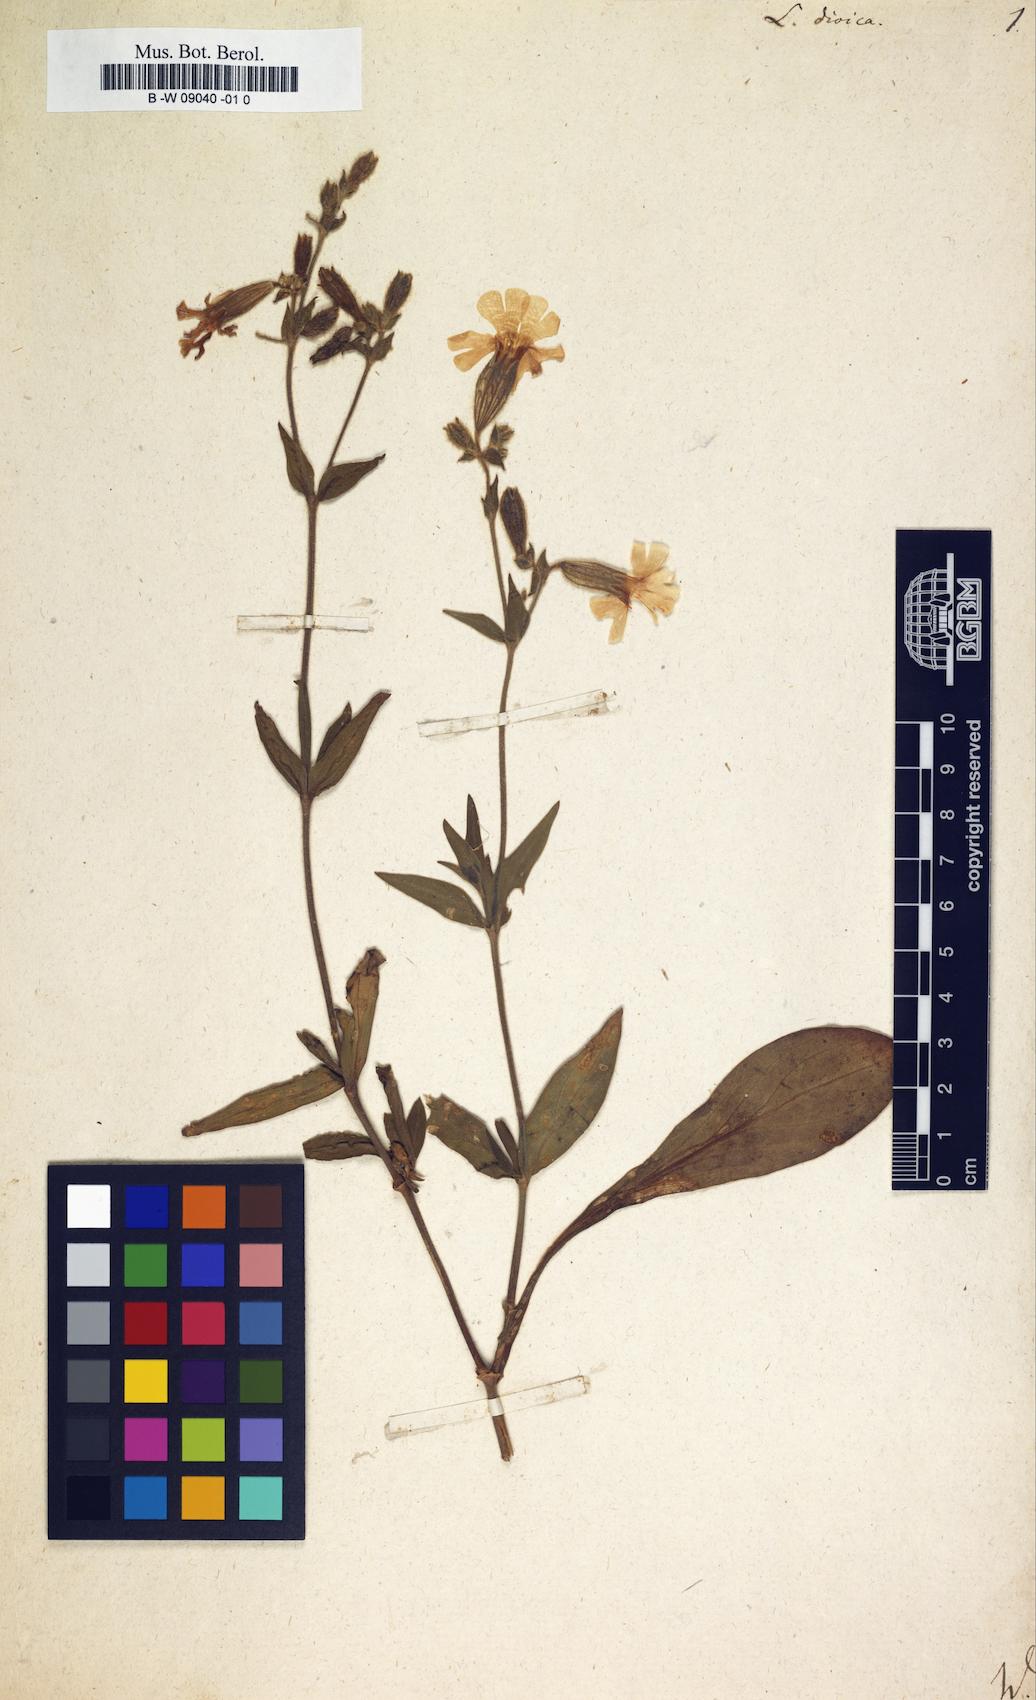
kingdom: Plantae
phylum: Tracheophyta
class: Magnoliopsida
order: Caryophyllales
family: Caryophyllaceae
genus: Silene
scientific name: Silene dioica
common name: Red campion
